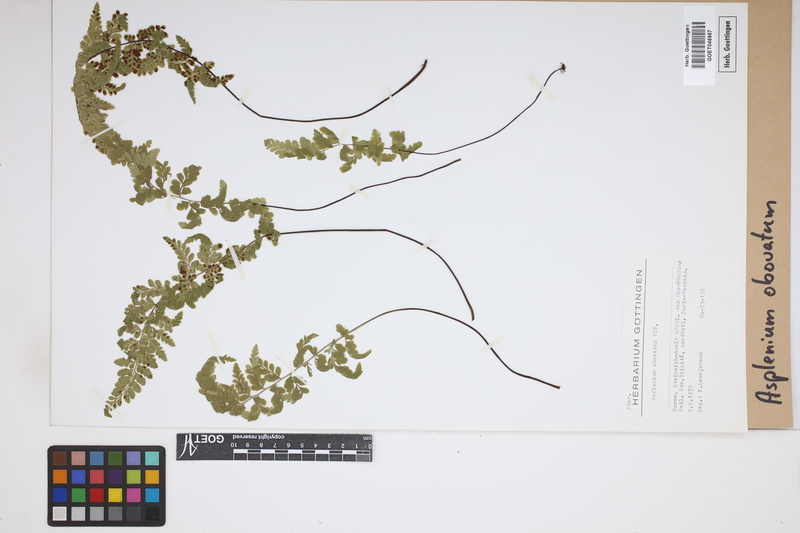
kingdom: Plantae
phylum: Tracheophyta
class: Polypodiopsida
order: Polypodiales
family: Aspleniaceae
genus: Asplenium
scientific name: Asplenium obovatum
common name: Lanceolate spleenwort
